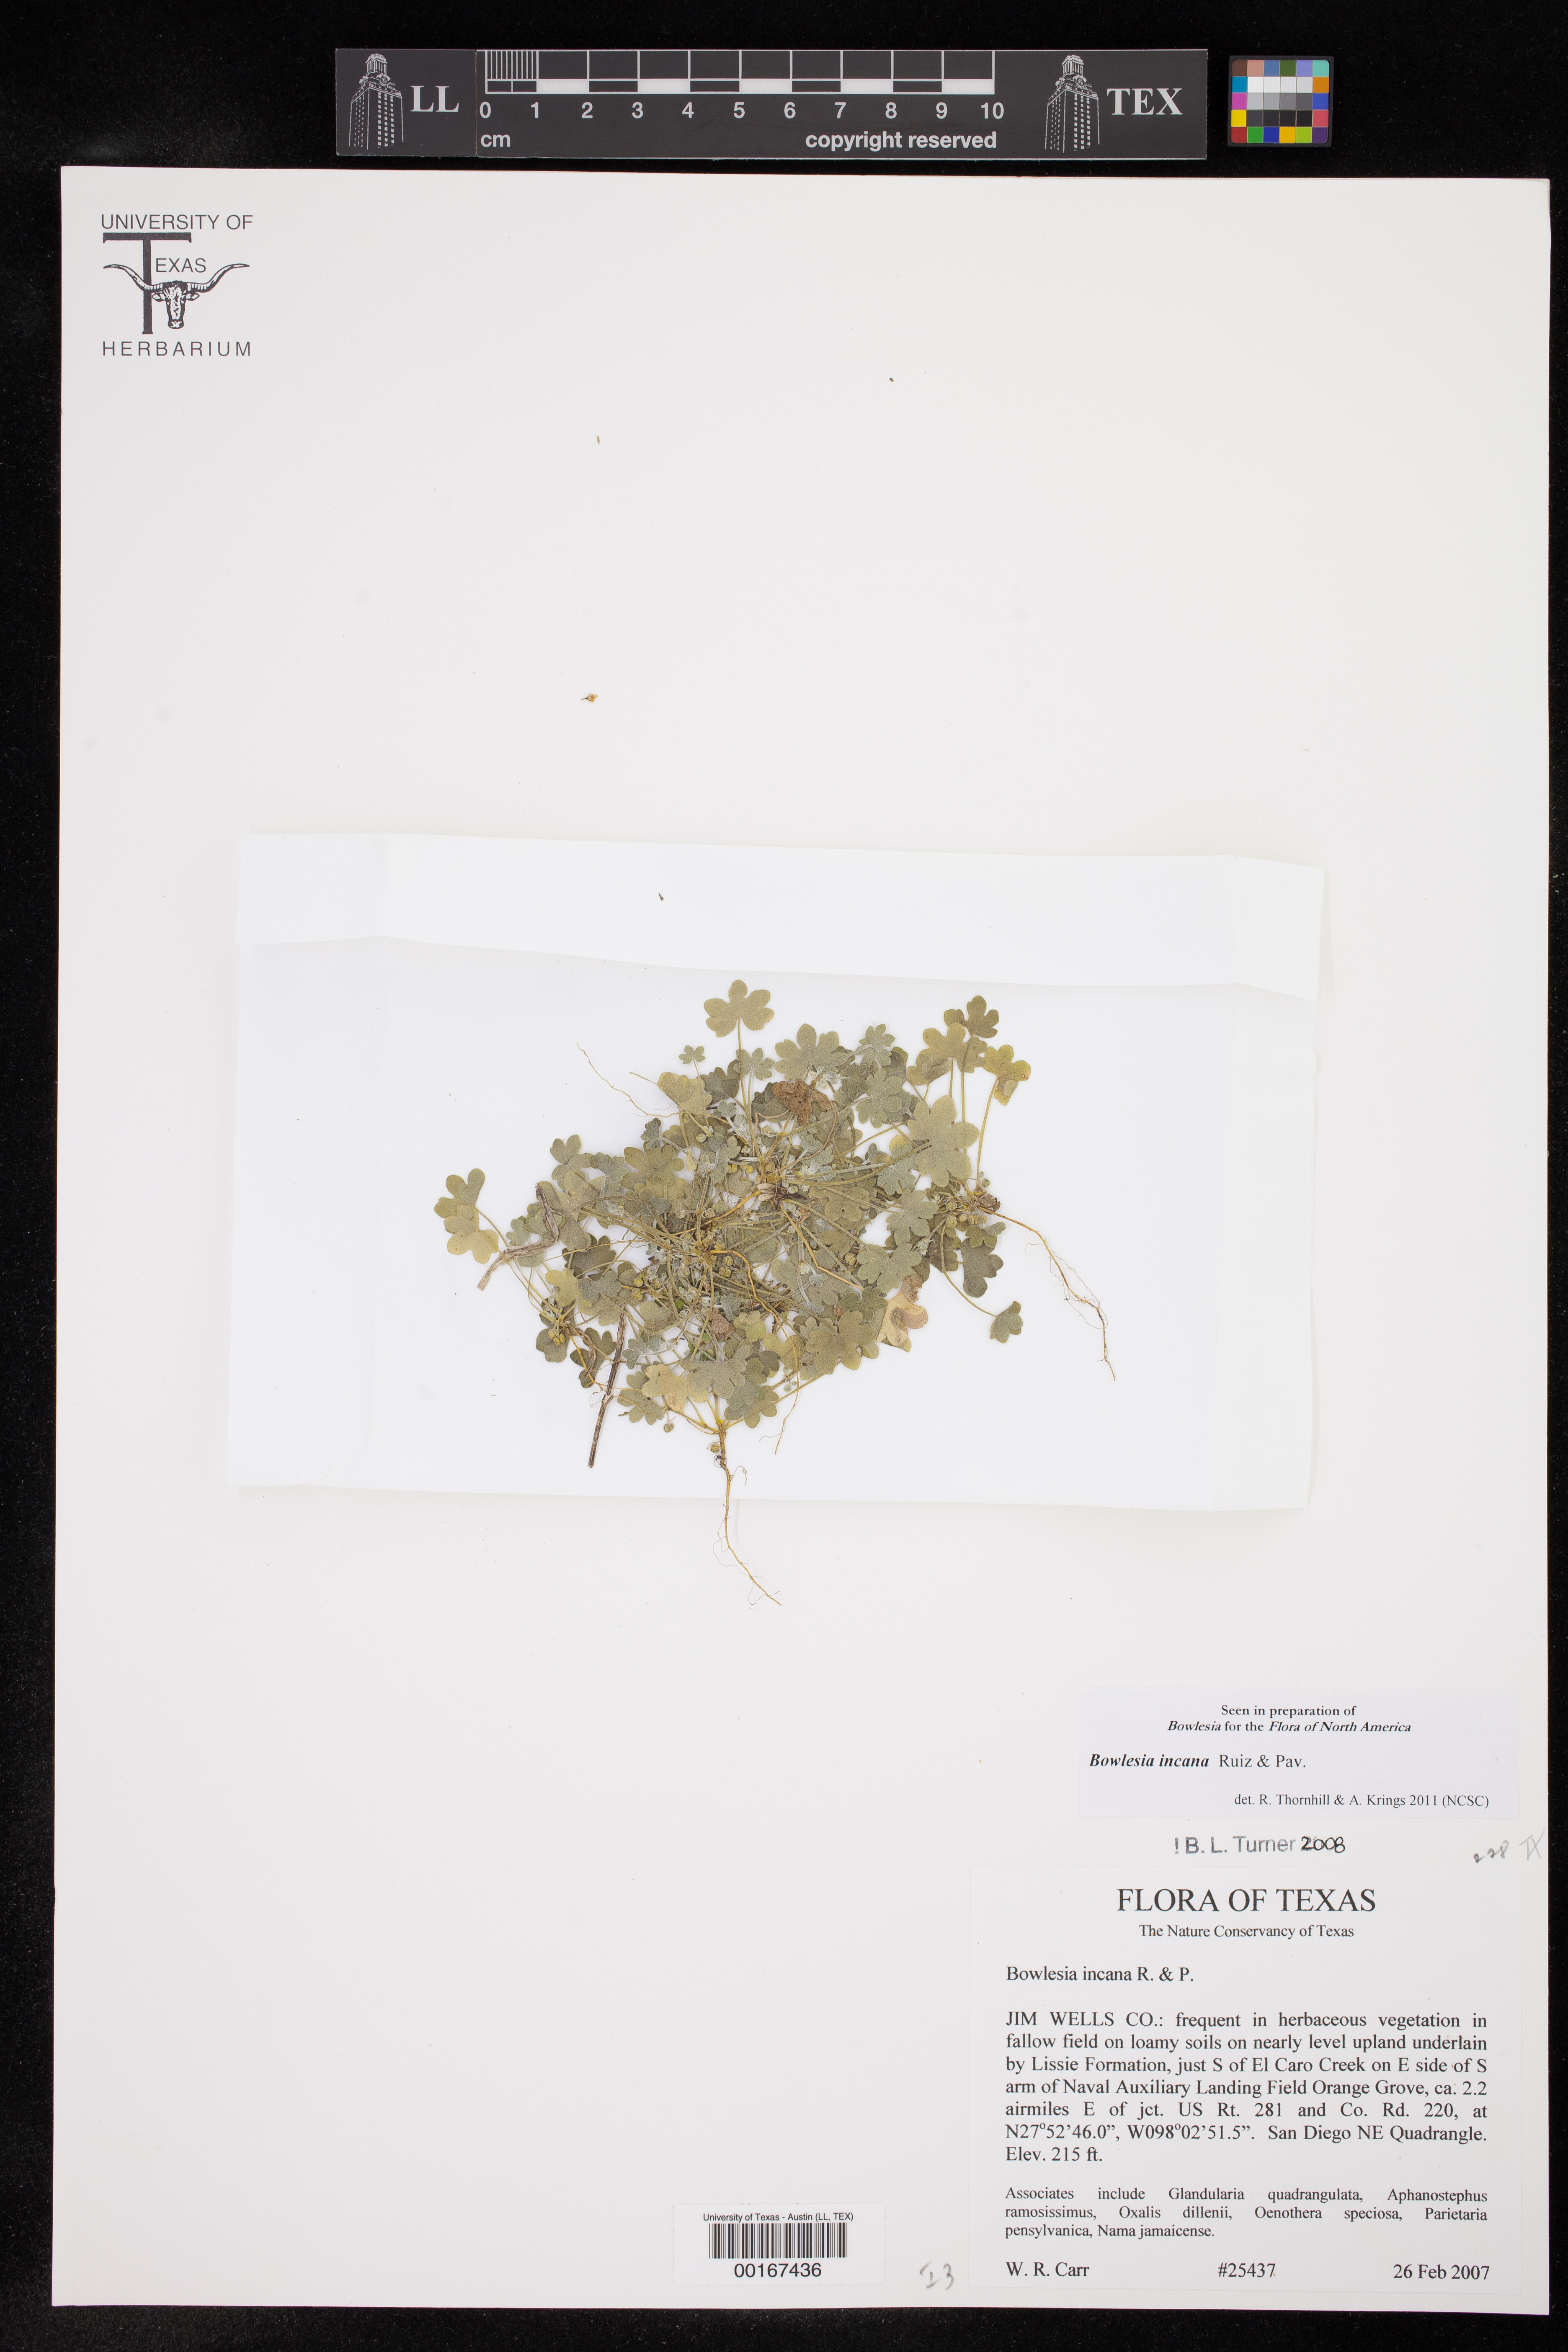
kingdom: Plantae
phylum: Tracheophyta
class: Magnoliopsida
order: Apiales
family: Apiaceae
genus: Bowlesia
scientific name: Bowlesia incana
